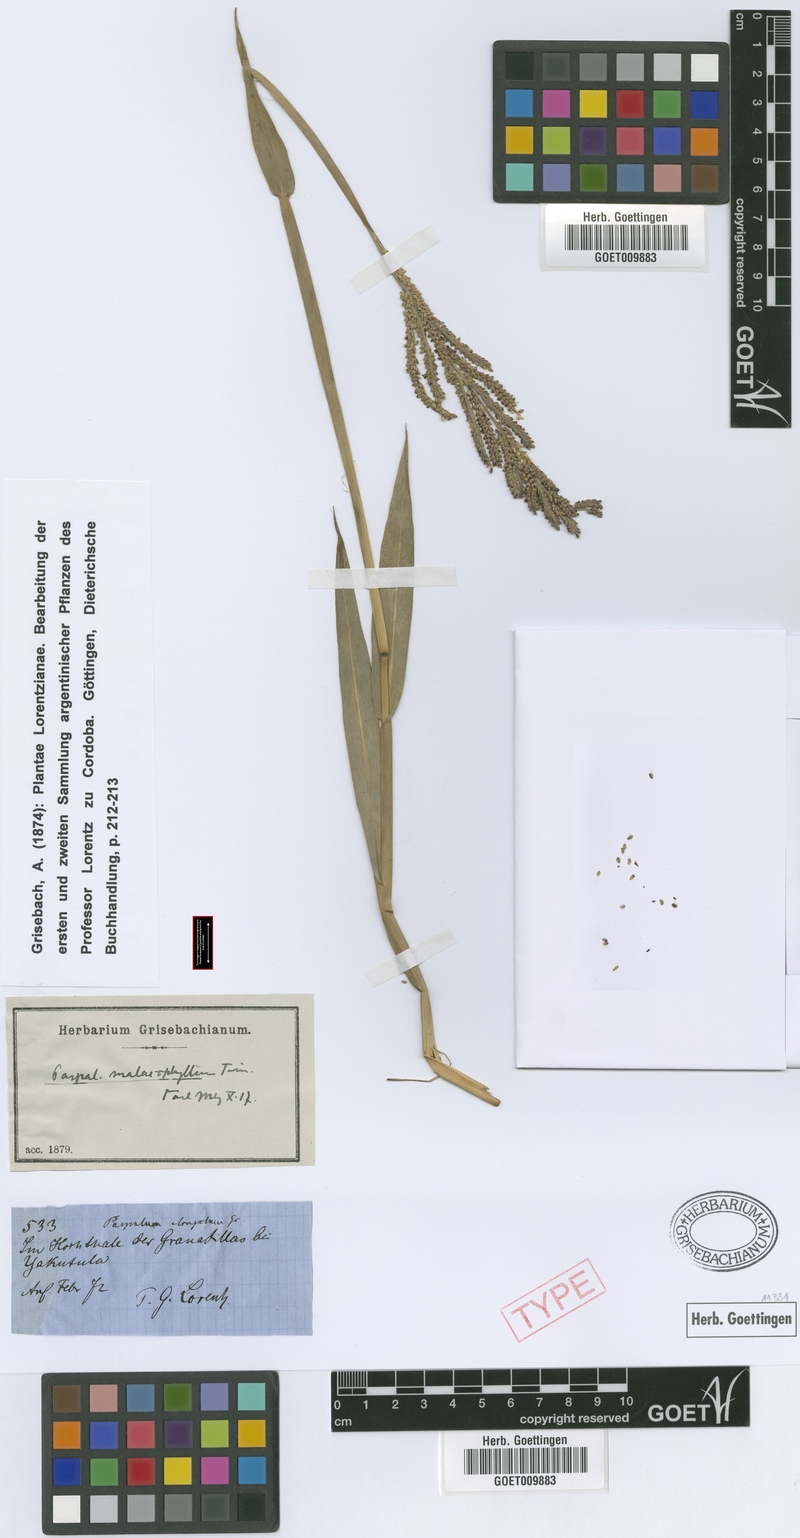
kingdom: Plantae
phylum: Tracheophyta
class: Liliopsida
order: Poales
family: Poaceae
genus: Paspalum
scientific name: Paspalum malacophyllum
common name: Ribbed paspalum
